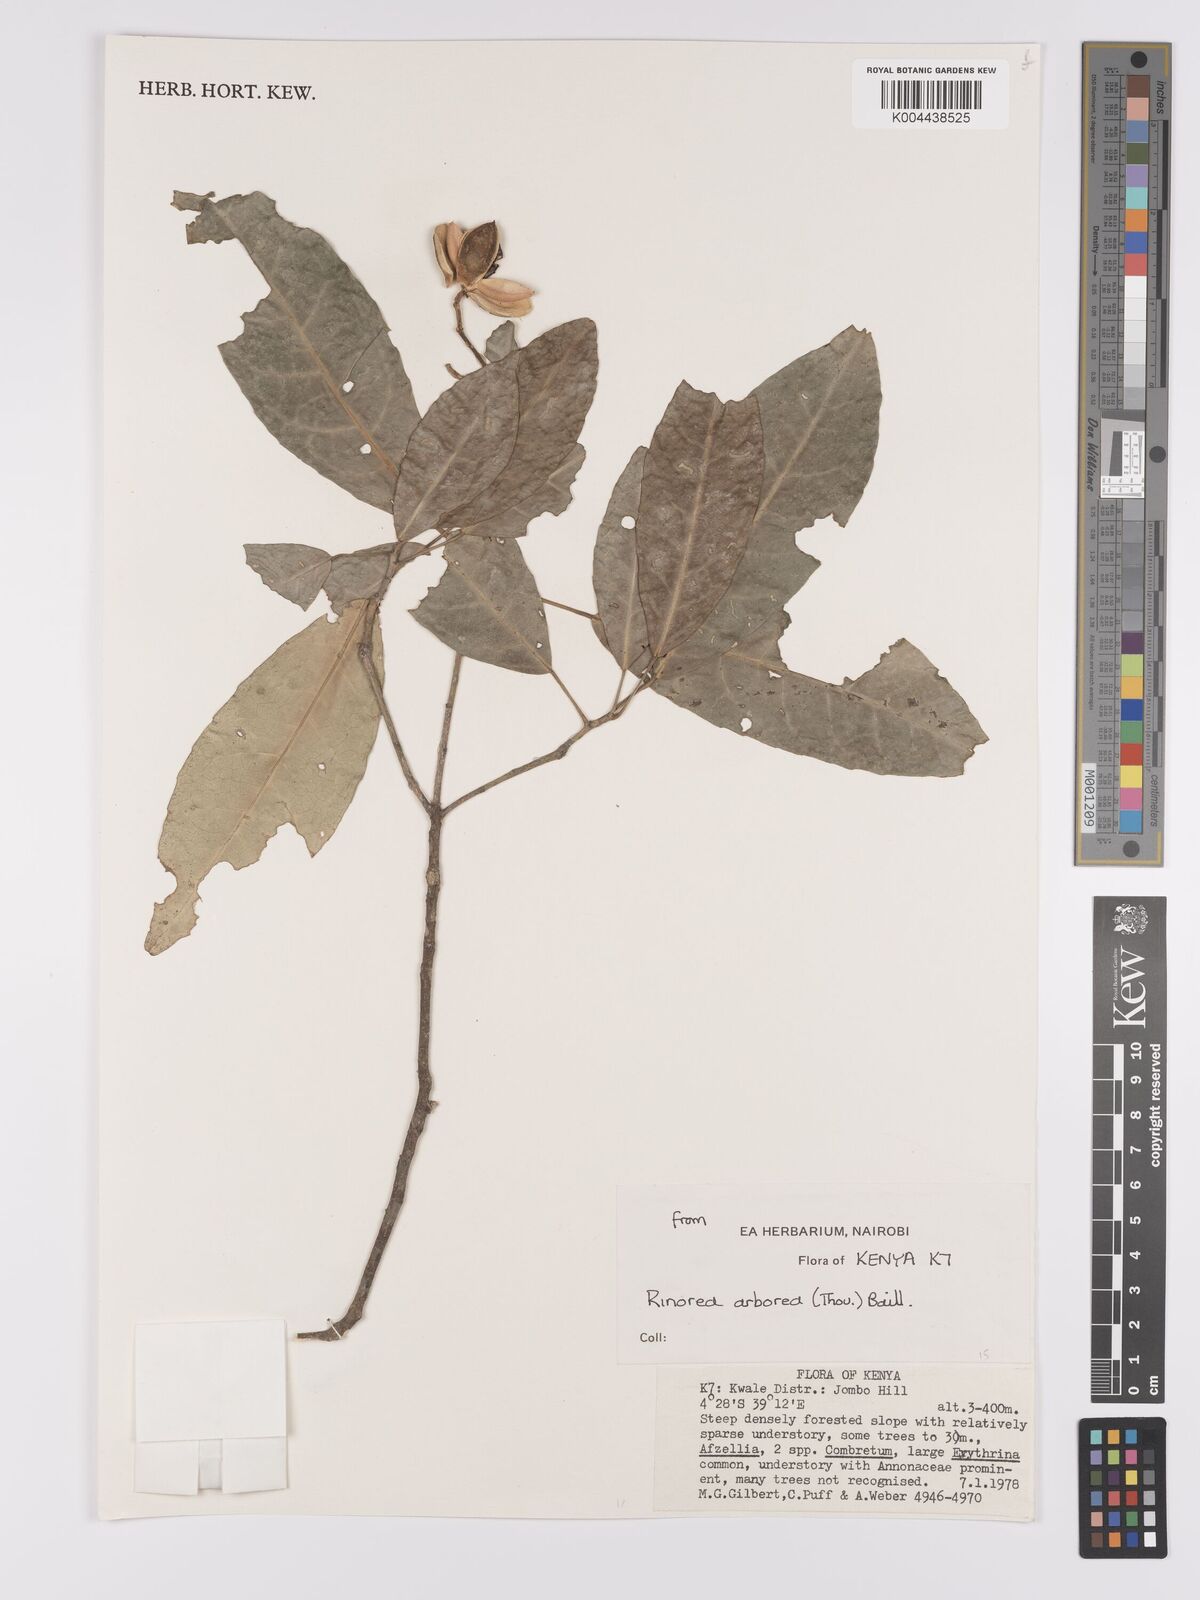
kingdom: Plantae
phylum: Tracheophyta
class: Magnoliopsida
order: Malpighiales
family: Violaceae
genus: Rinorea
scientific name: Rinorea arborea
